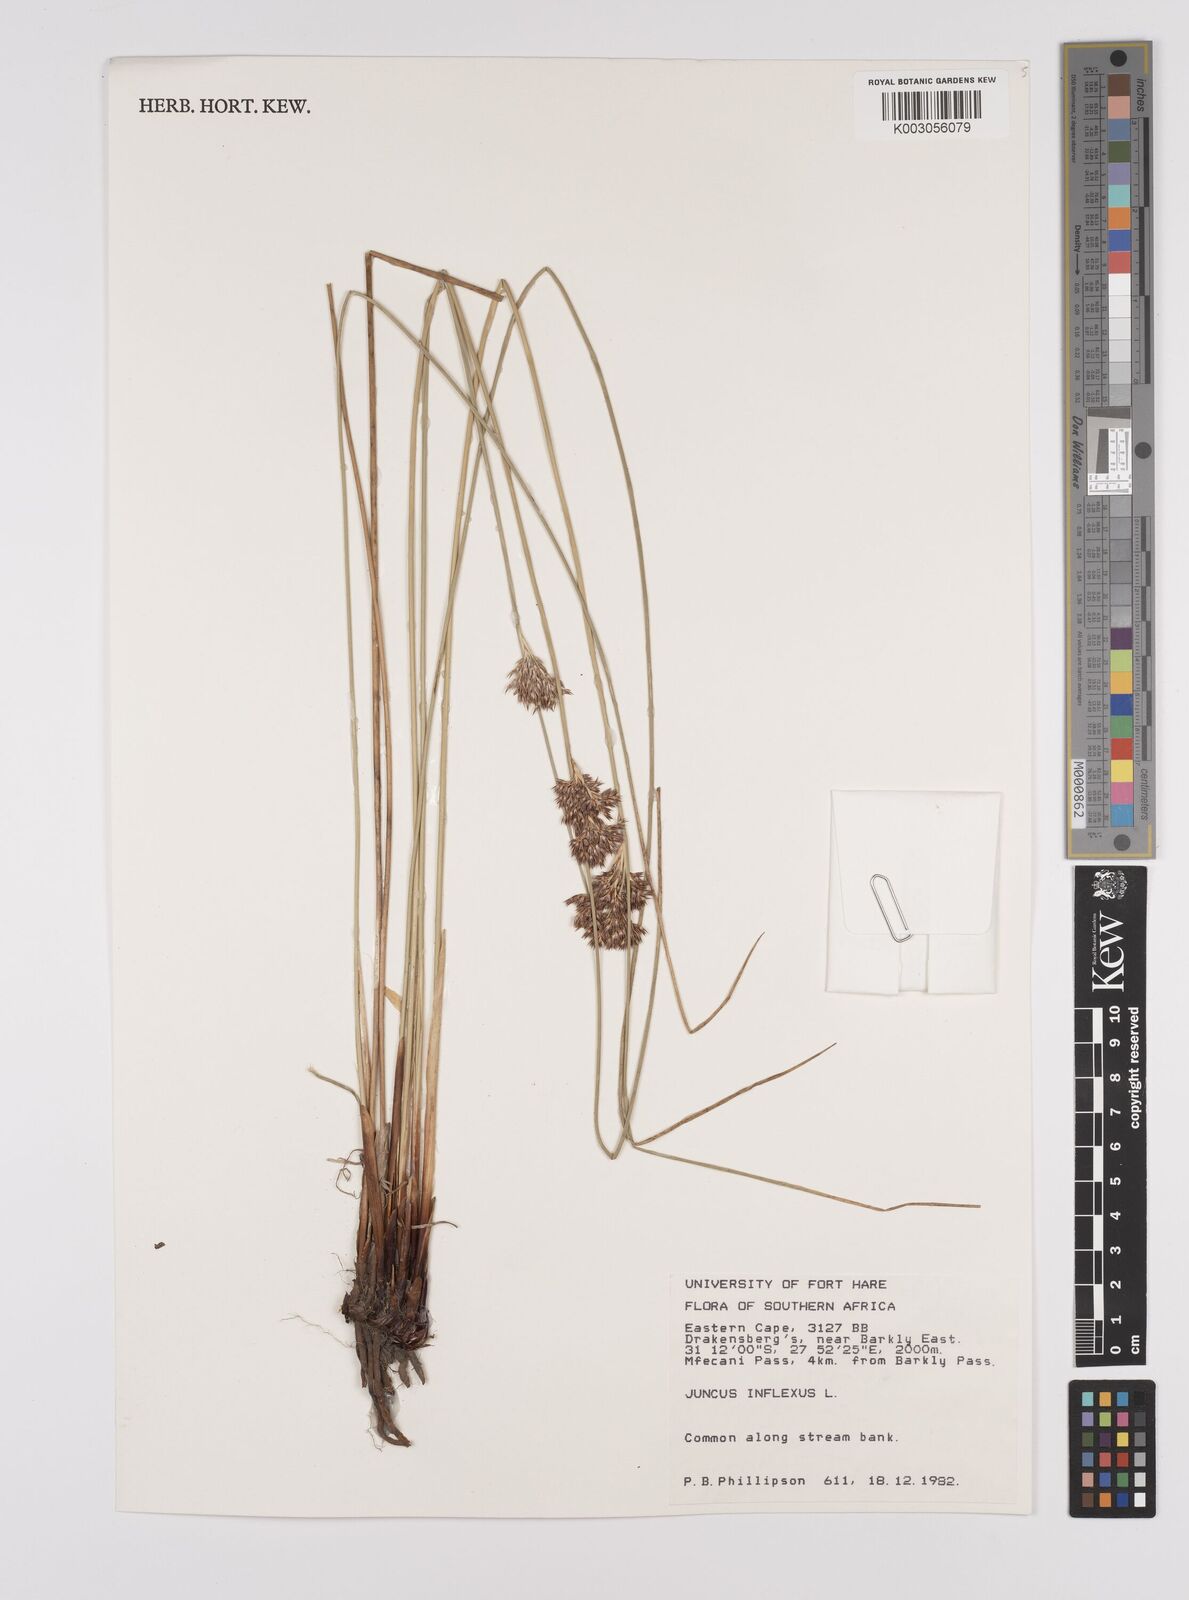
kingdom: Plantae
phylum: Tracheophyta
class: Liliopsida
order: Poales
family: Juncaceae
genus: Juncus
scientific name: Juncus inflexus
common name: Hard rush
